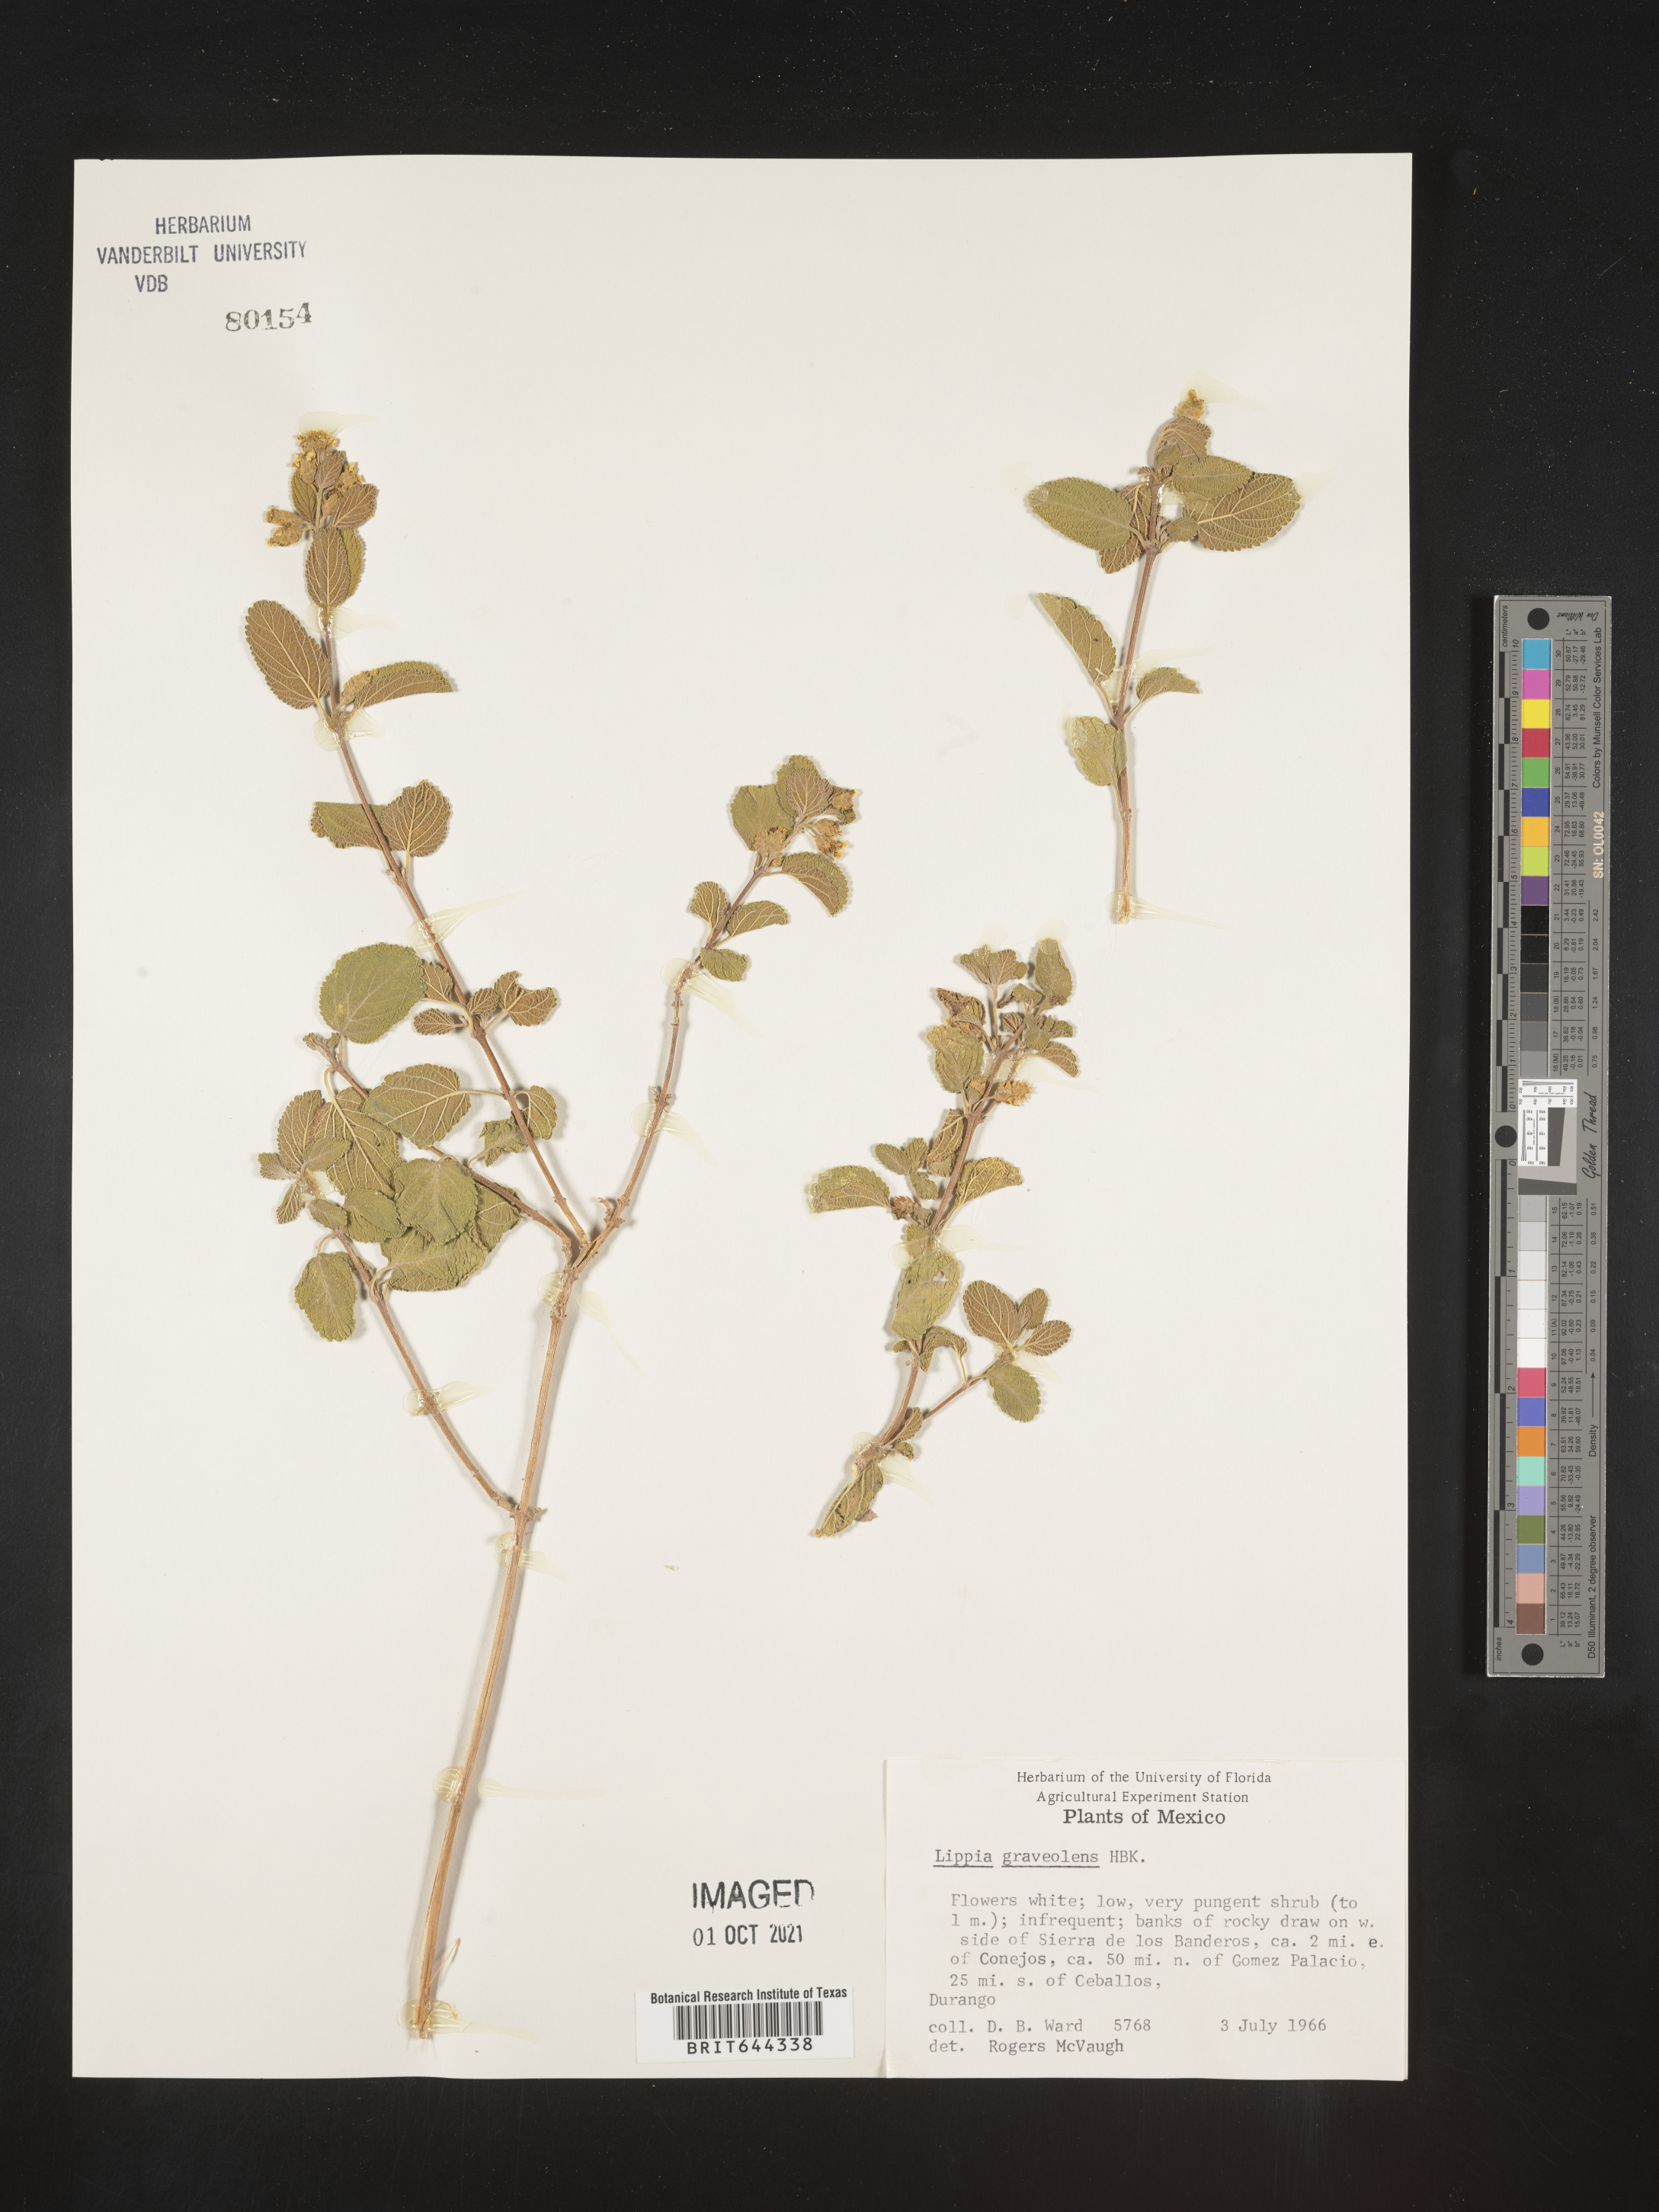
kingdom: Plantae
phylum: Tracheophyta
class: Magnoliopsida
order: Lamiales
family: Verbenaceae
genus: Phyla
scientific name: Phyla
